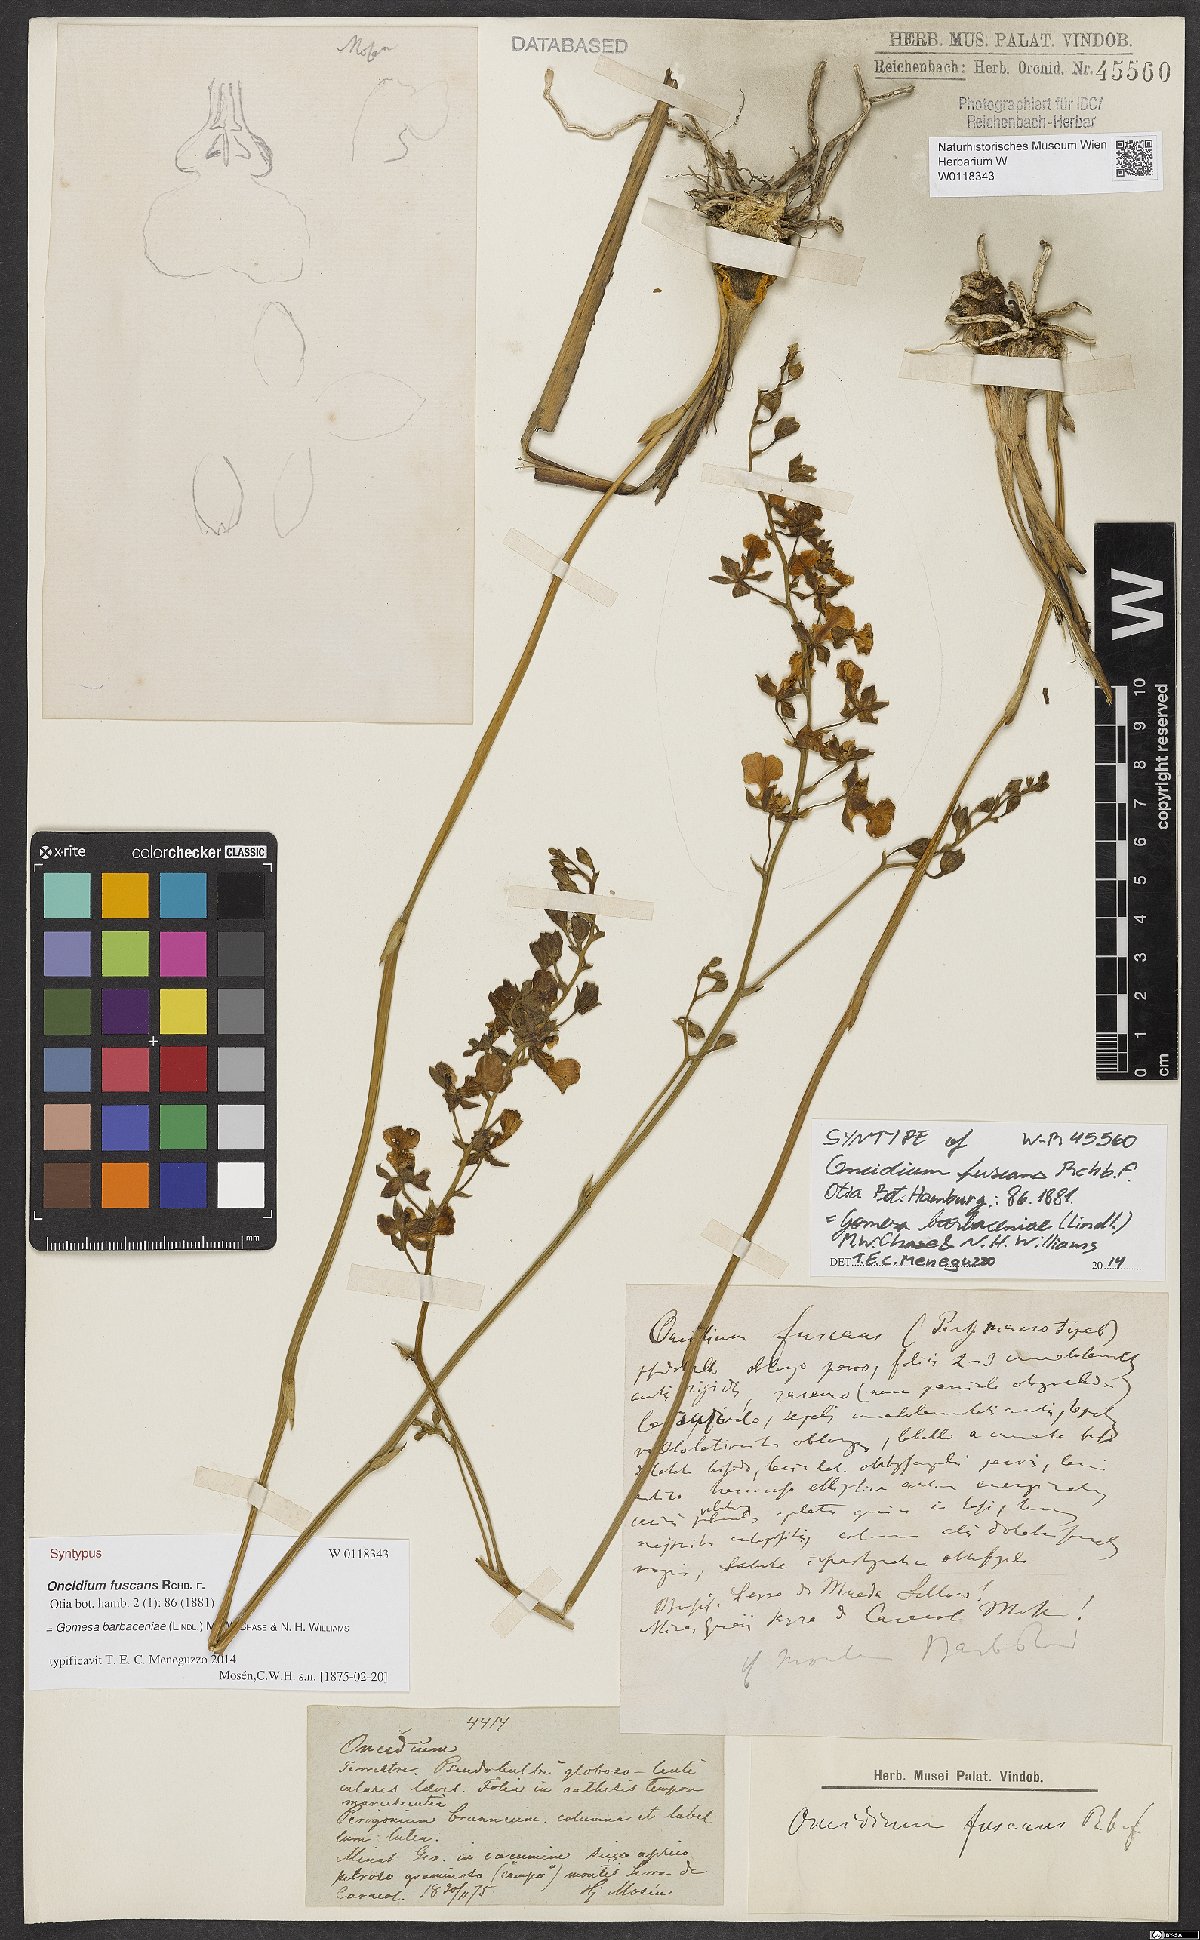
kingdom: Plantae
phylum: Tracheophyta
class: Liliopsida
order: Asparagales
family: Orchidaceae
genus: Gomesa
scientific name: Gomesa fuscans
